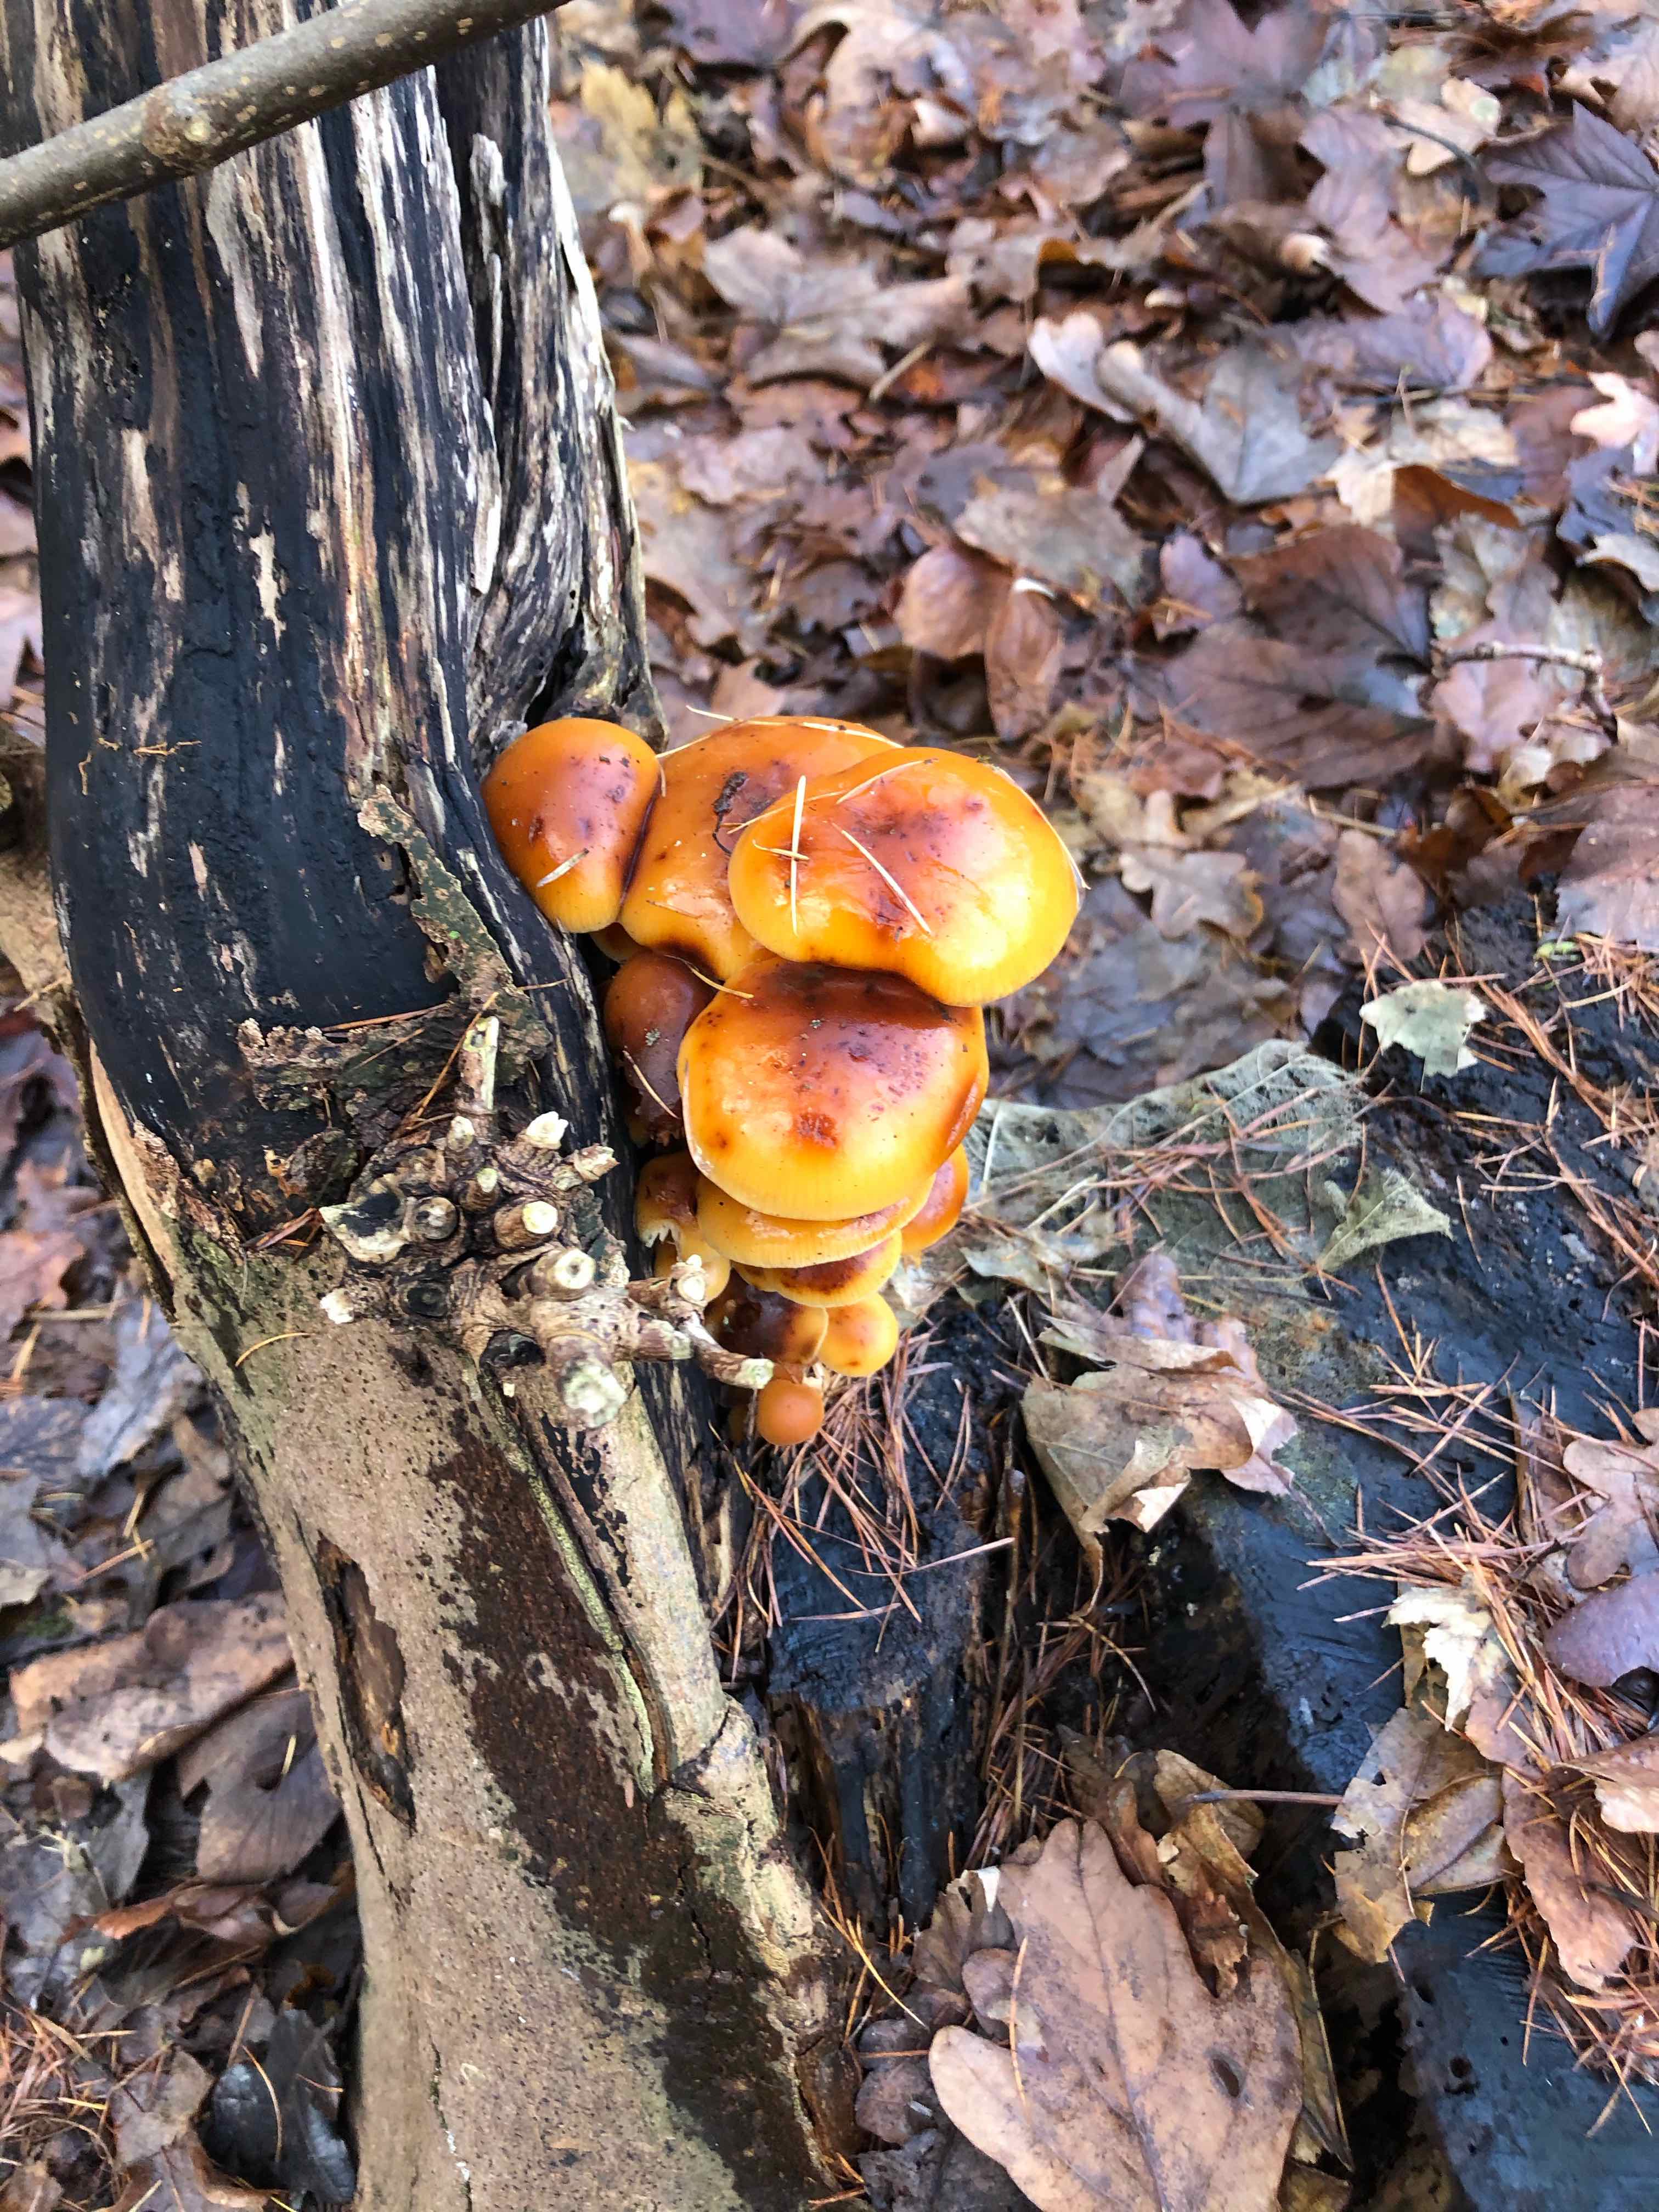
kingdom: Fungi
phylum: Basidiomycota
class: Agaricomycetes
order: Agaricales
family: Physalacriaceae
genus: Flammulina
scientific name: Flammulina velutipes
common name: gul fløjlsfod
